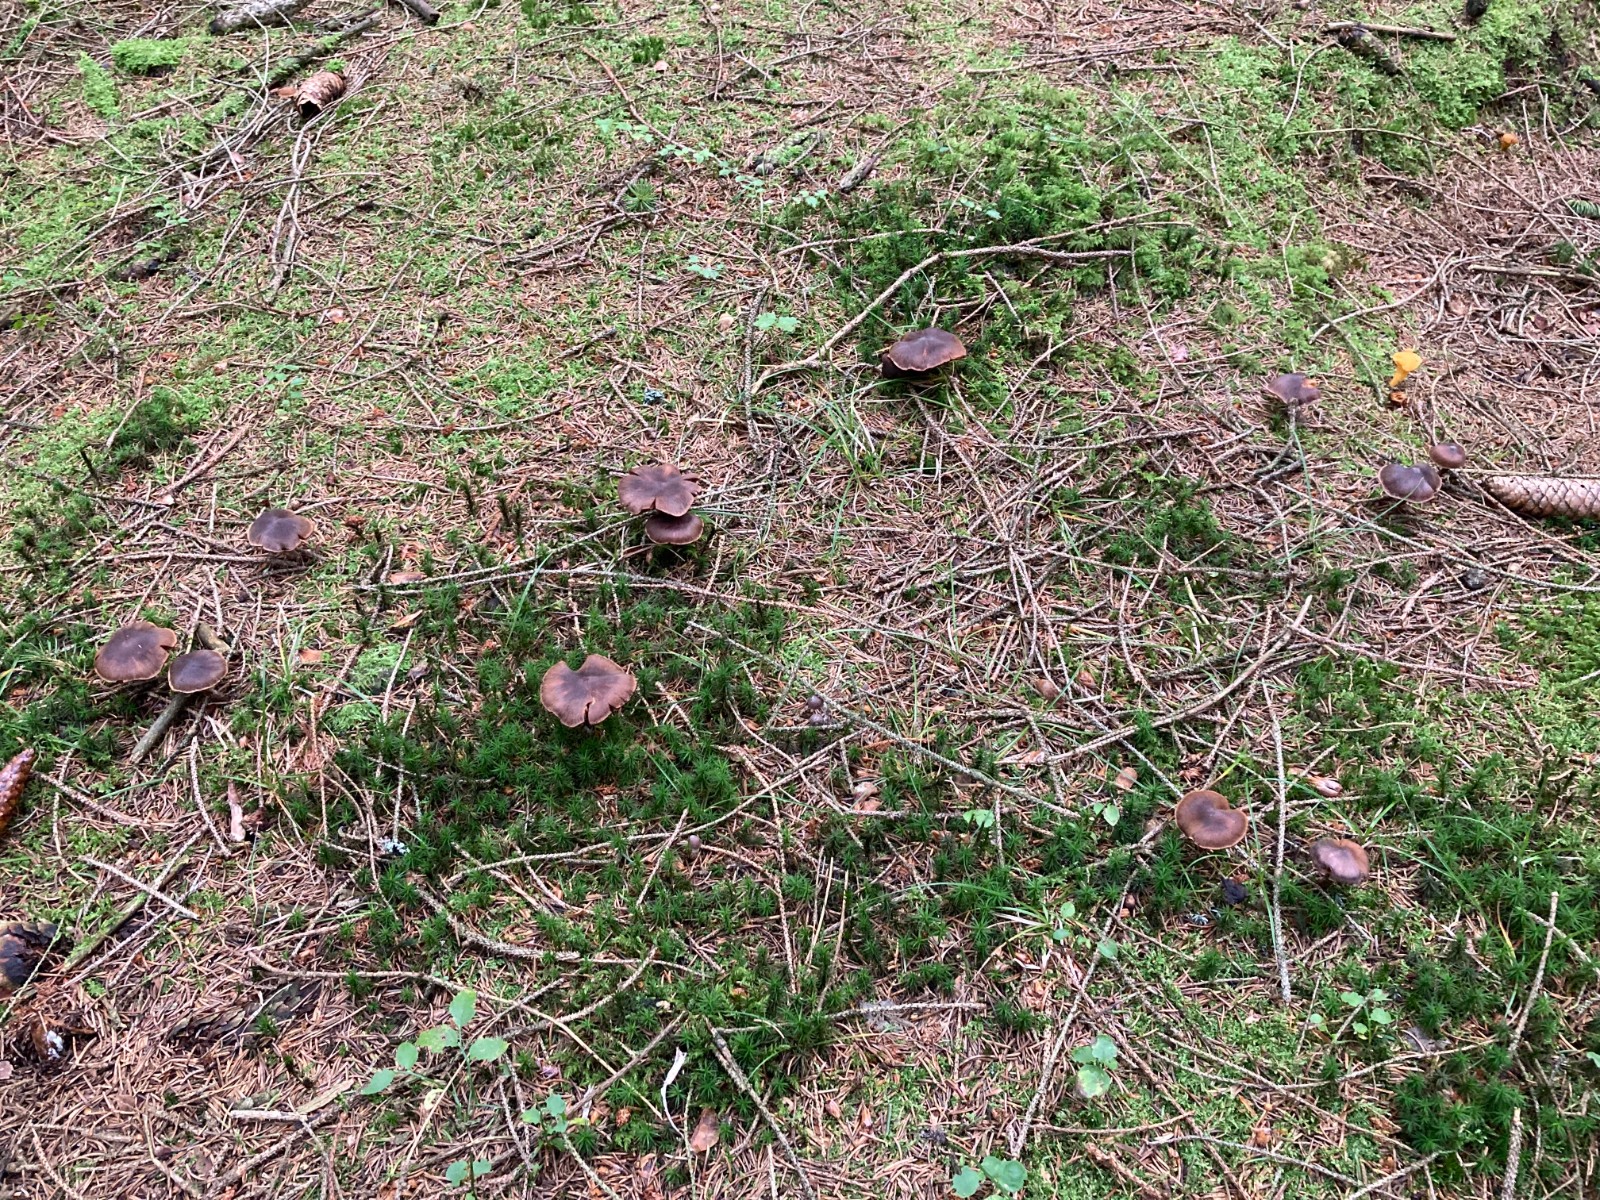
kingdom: Fungi
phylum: Basidiomycota
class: Agaricomycetes
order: Agaricales
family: Cortinariaceae
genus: Cortinarius
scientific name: Cortinarius fuscoalbus
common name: lysbladet slørhat
